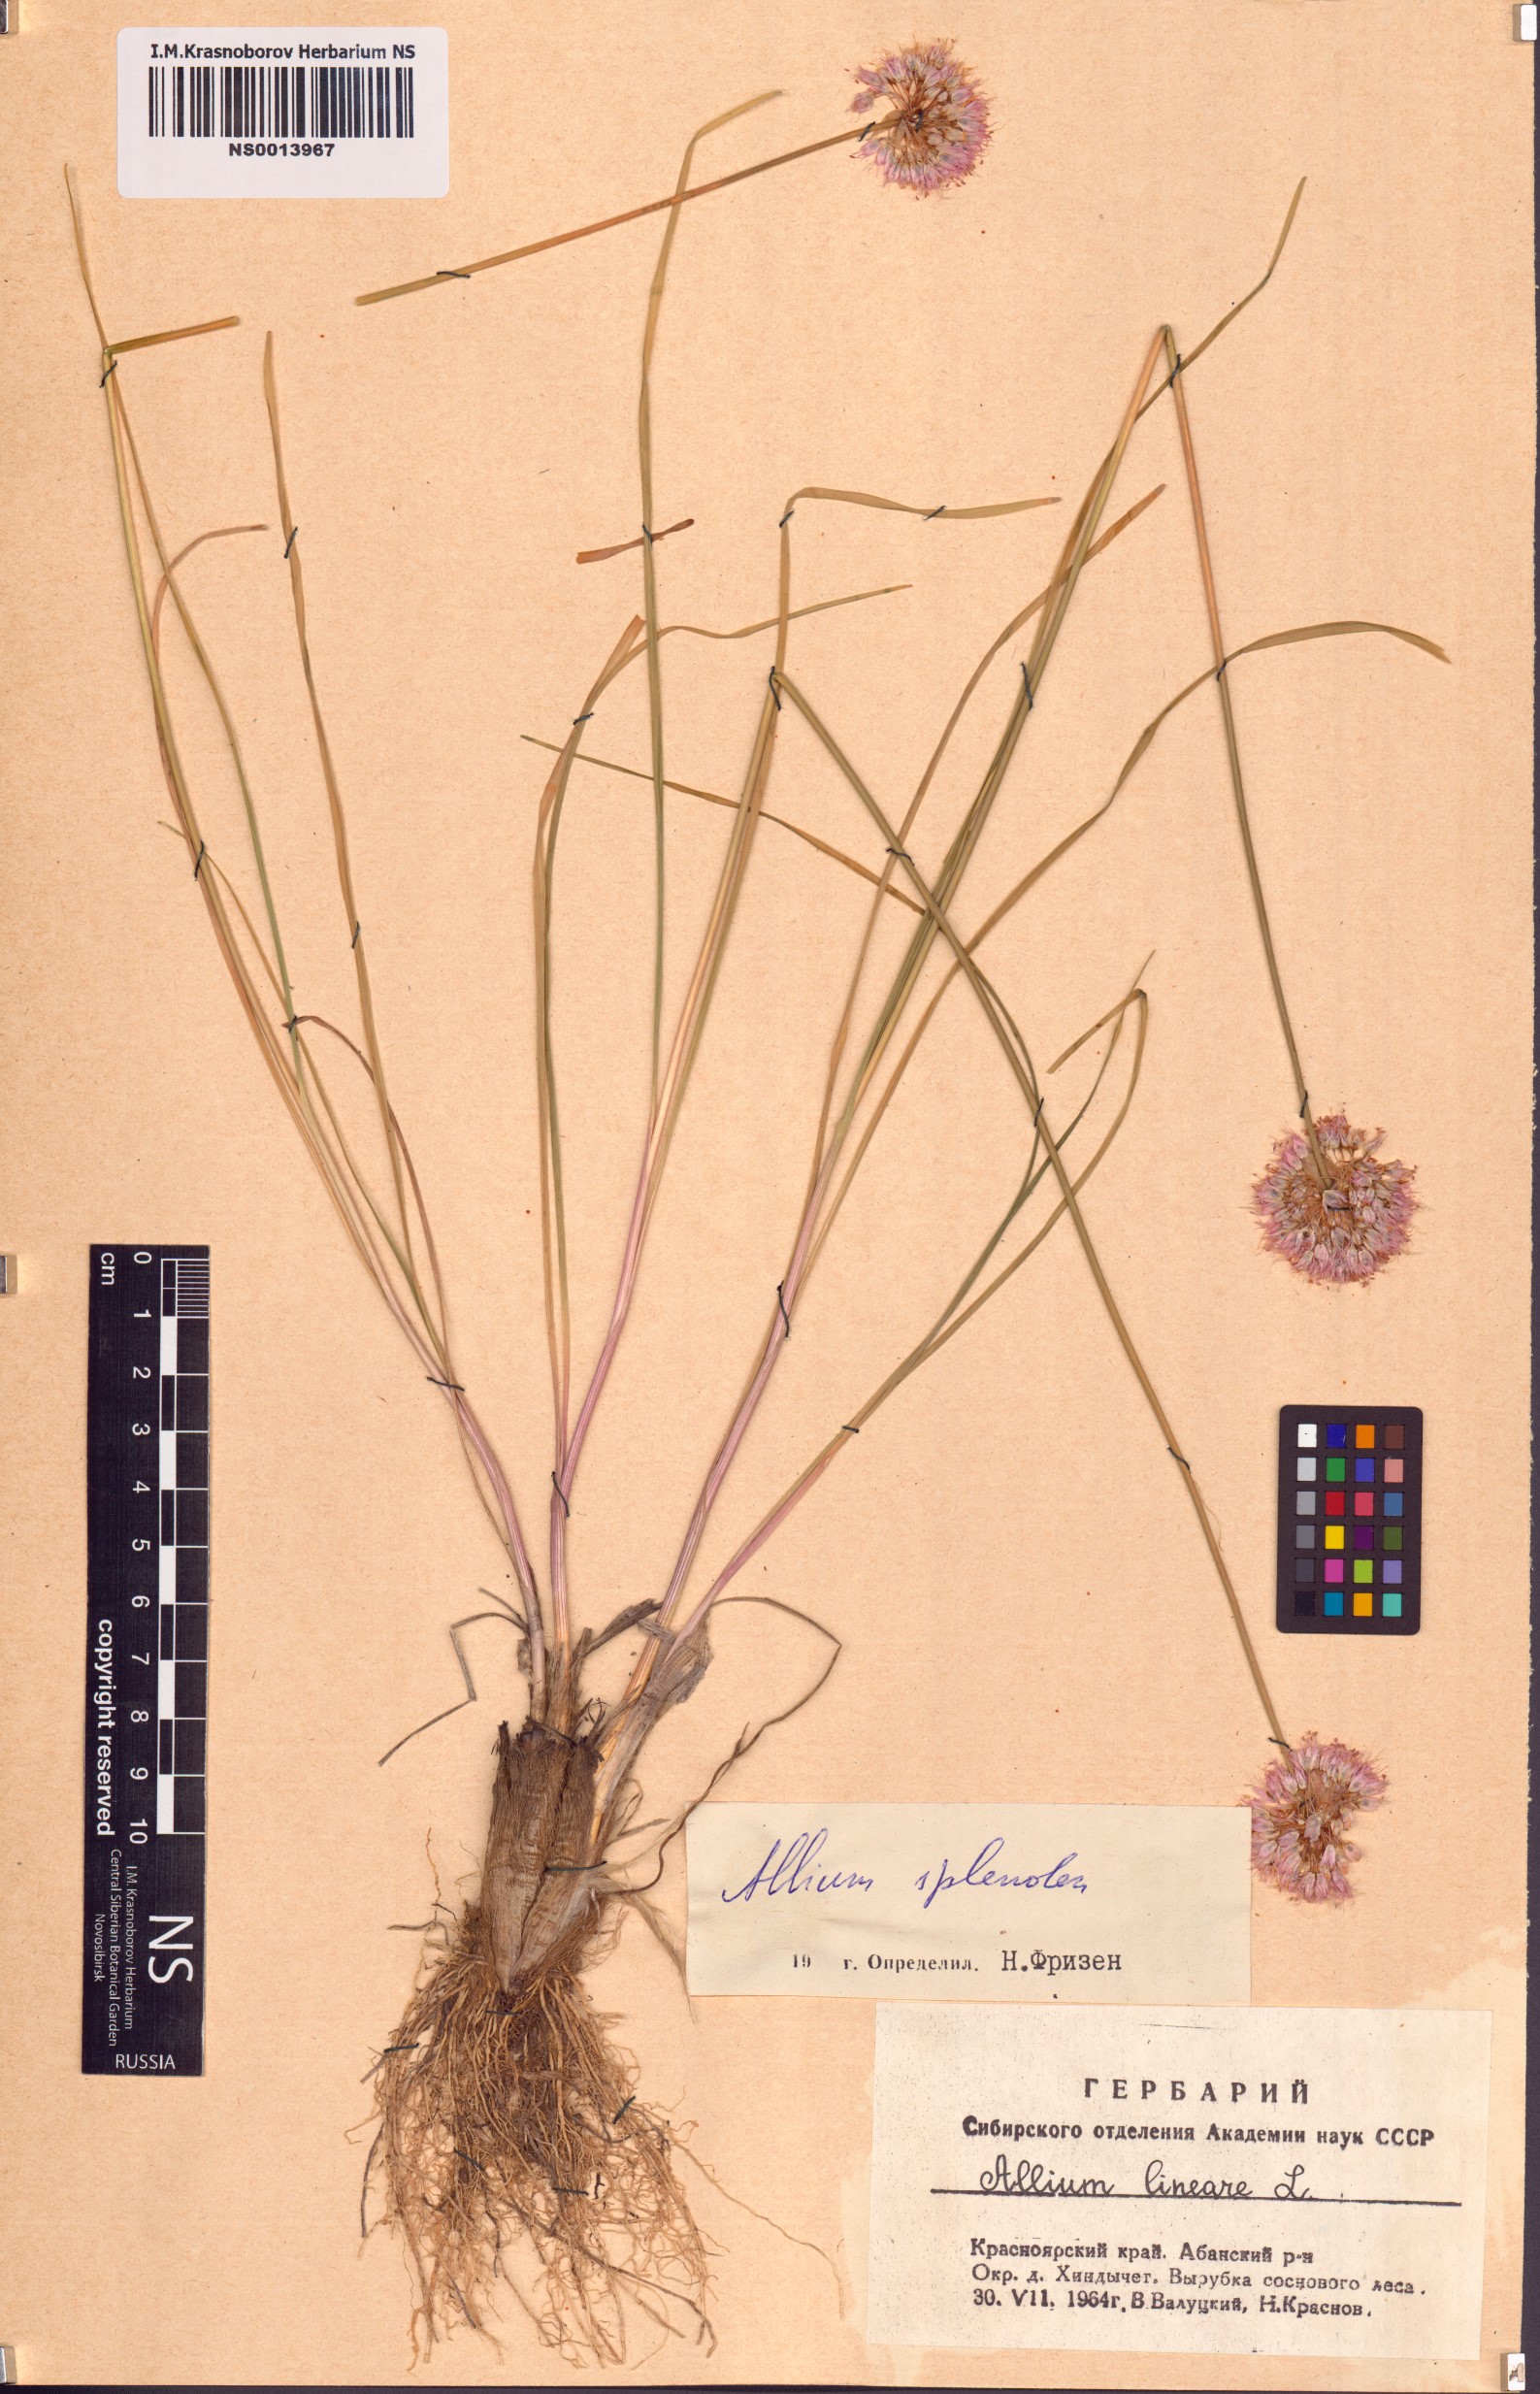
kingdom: Plantae
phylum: Tracheophyta
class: Liliopsida
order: Asparagales
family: Amaryllidaceae
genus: Allium
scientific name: Allium splendens
